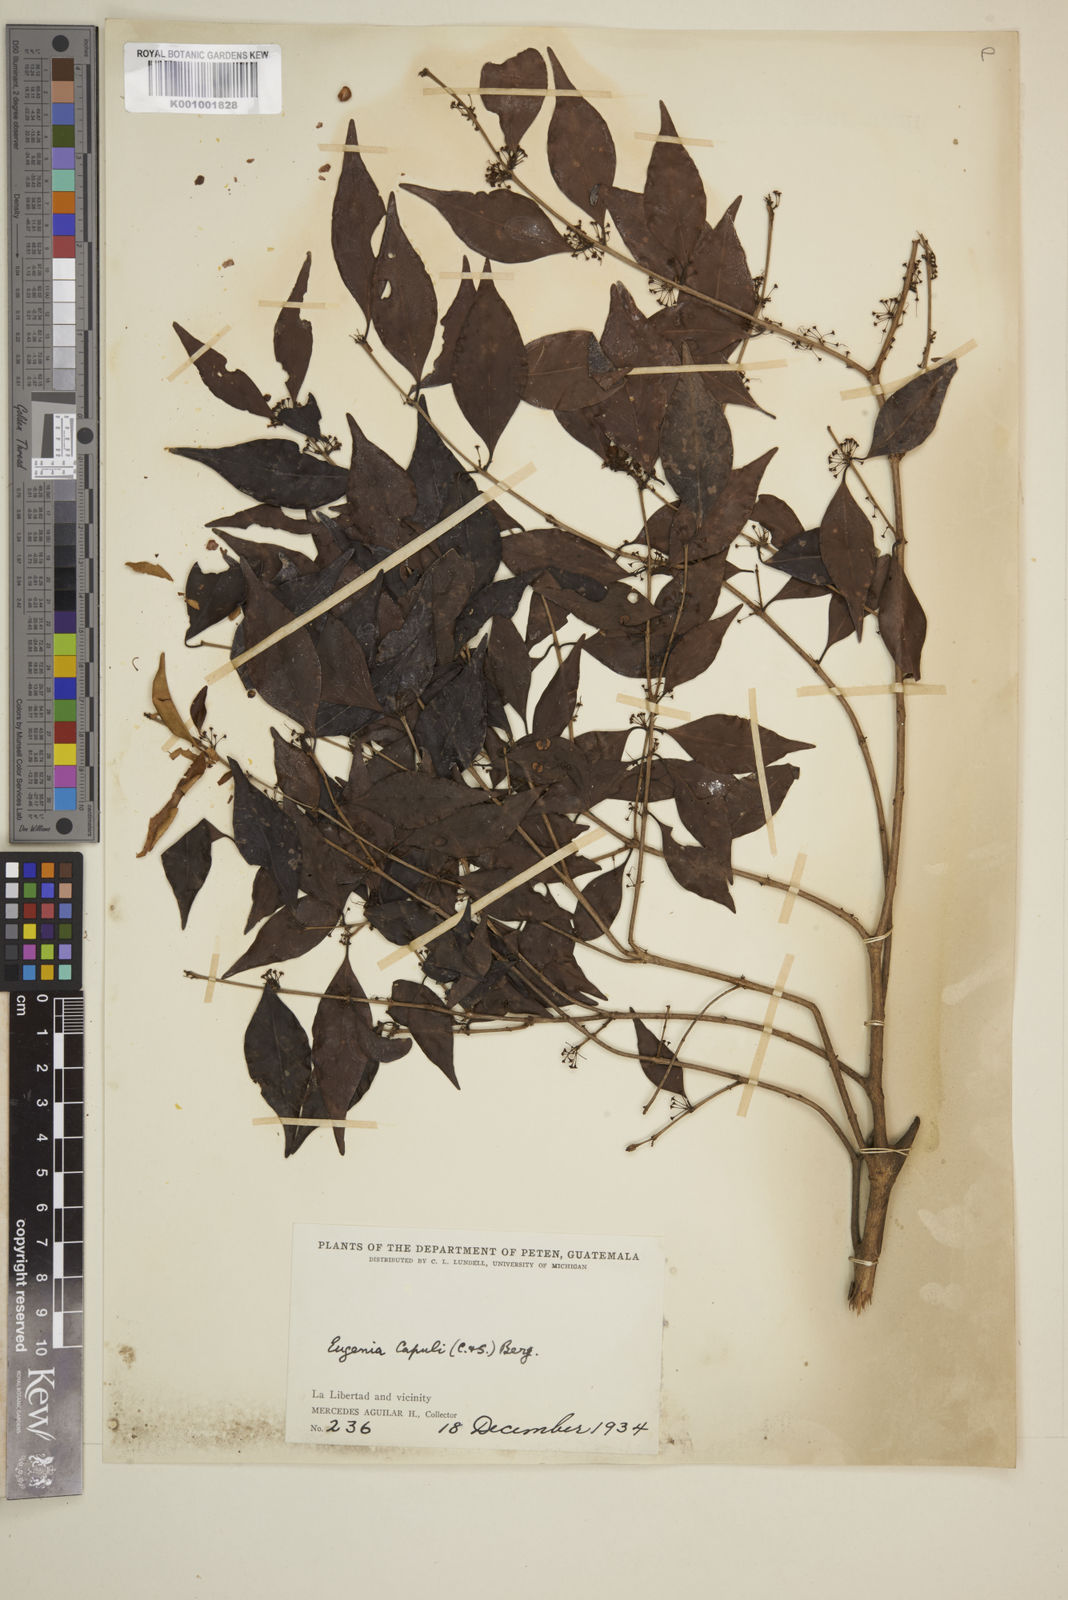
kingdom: Plantae
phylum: Tracheophyta
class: Magnoliopsida
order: Myrtales
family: Myrtaceae
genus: Eugenia
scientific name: Eugenia capuli
